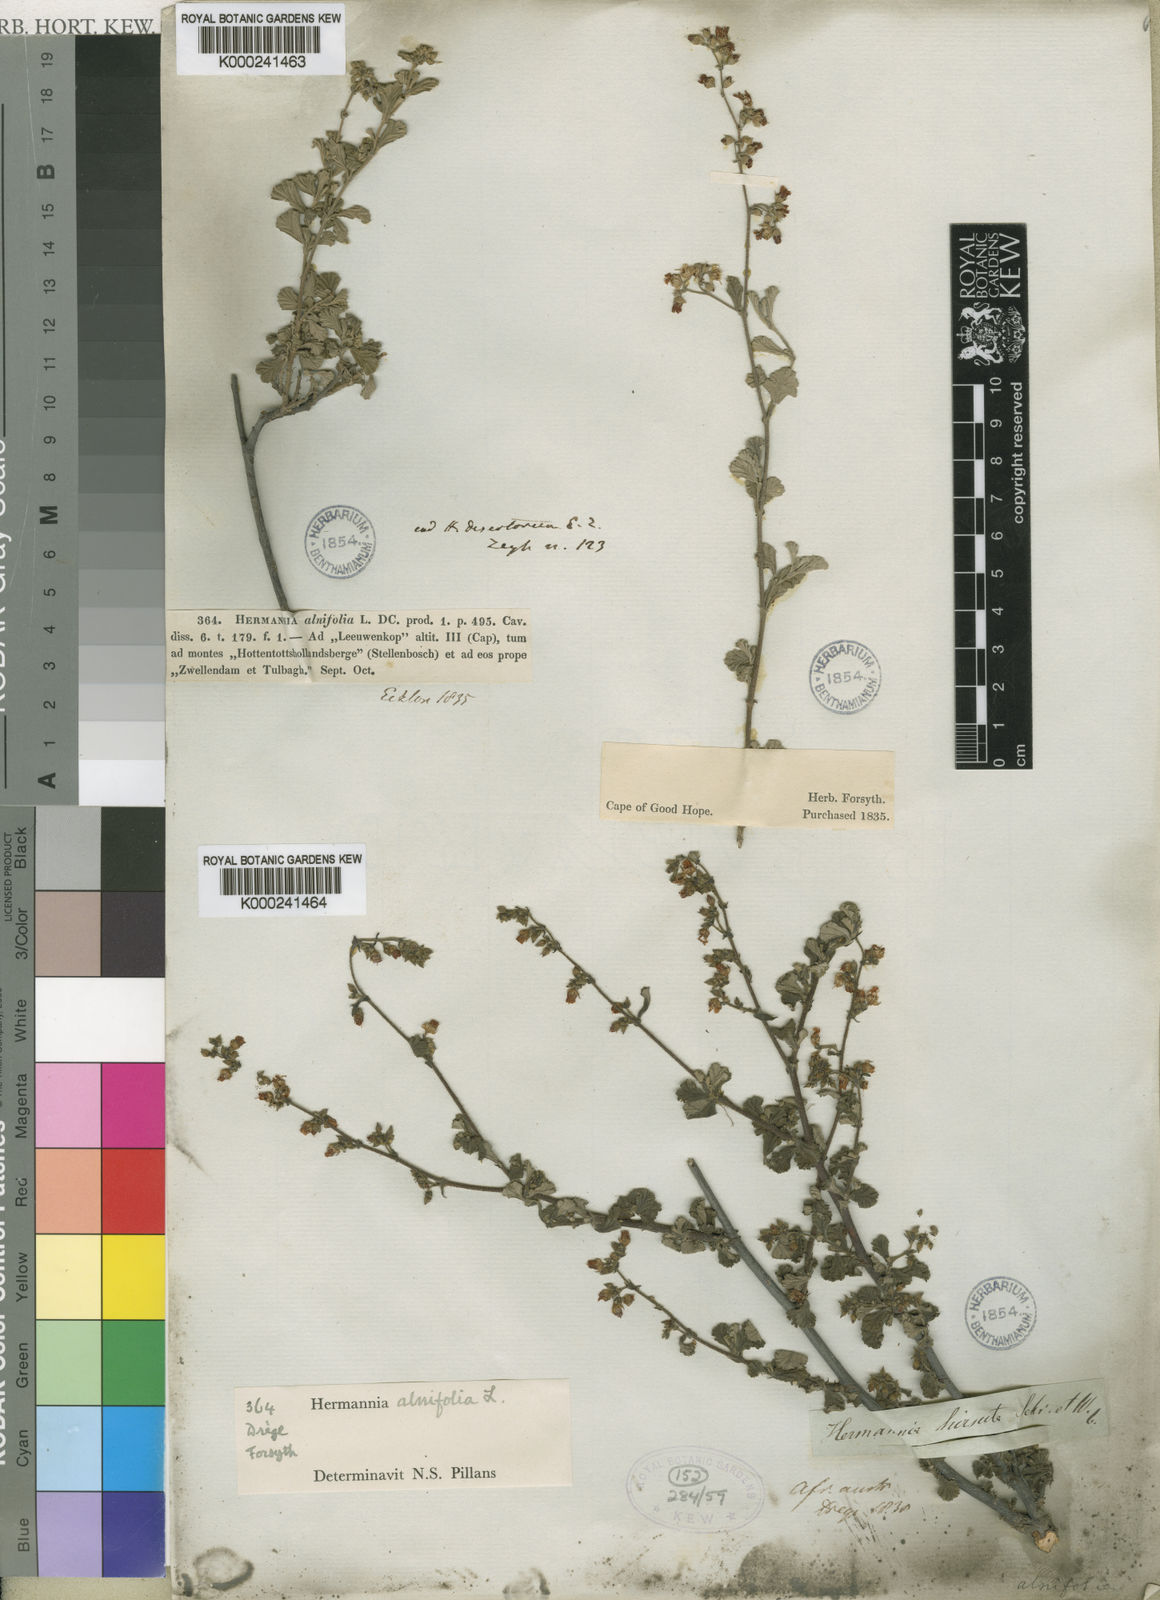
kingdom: Plantae
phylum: Tracheophyta
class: Magnoliopsida
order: Malvales
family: Malvaceae
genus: Hermannia
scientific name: Hermannia alnifolia
